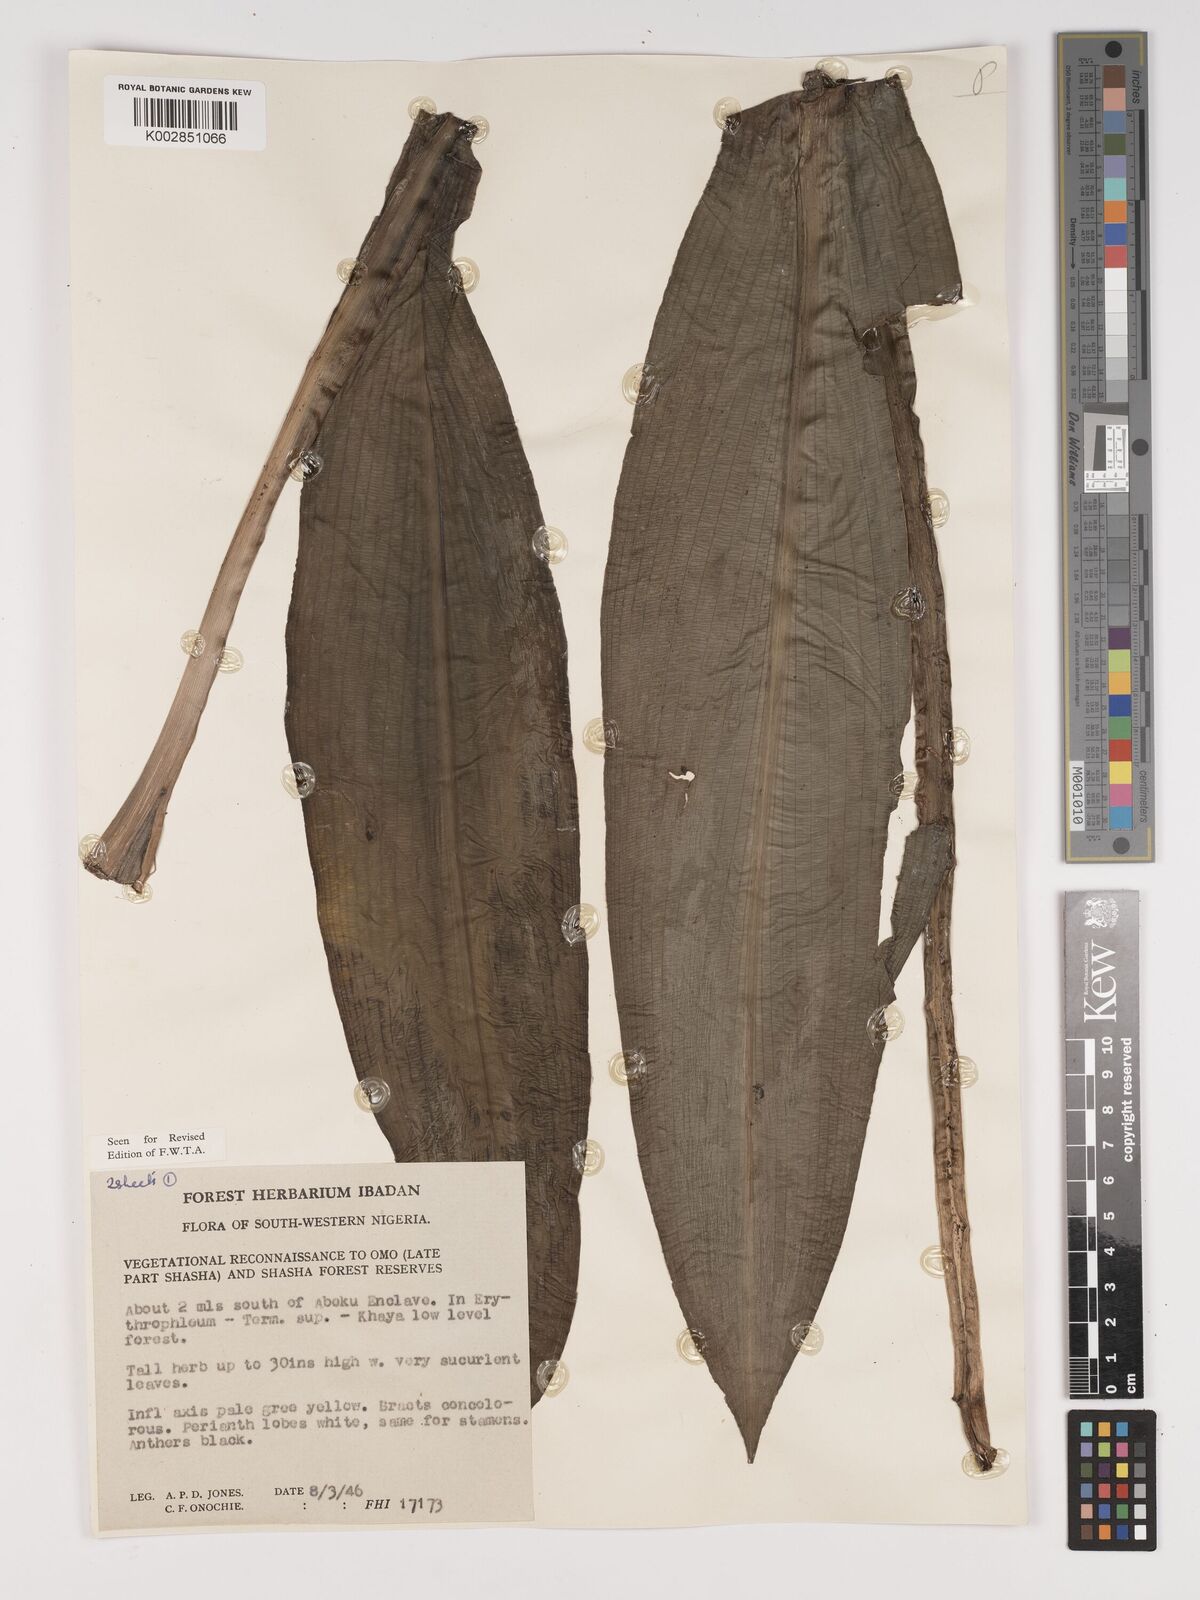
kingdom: Plantae
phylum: Tracheophyta
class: Liliopsida
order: Asparagales
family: Amaryllidaceae
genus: Crinum
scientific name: Crinum jagus
